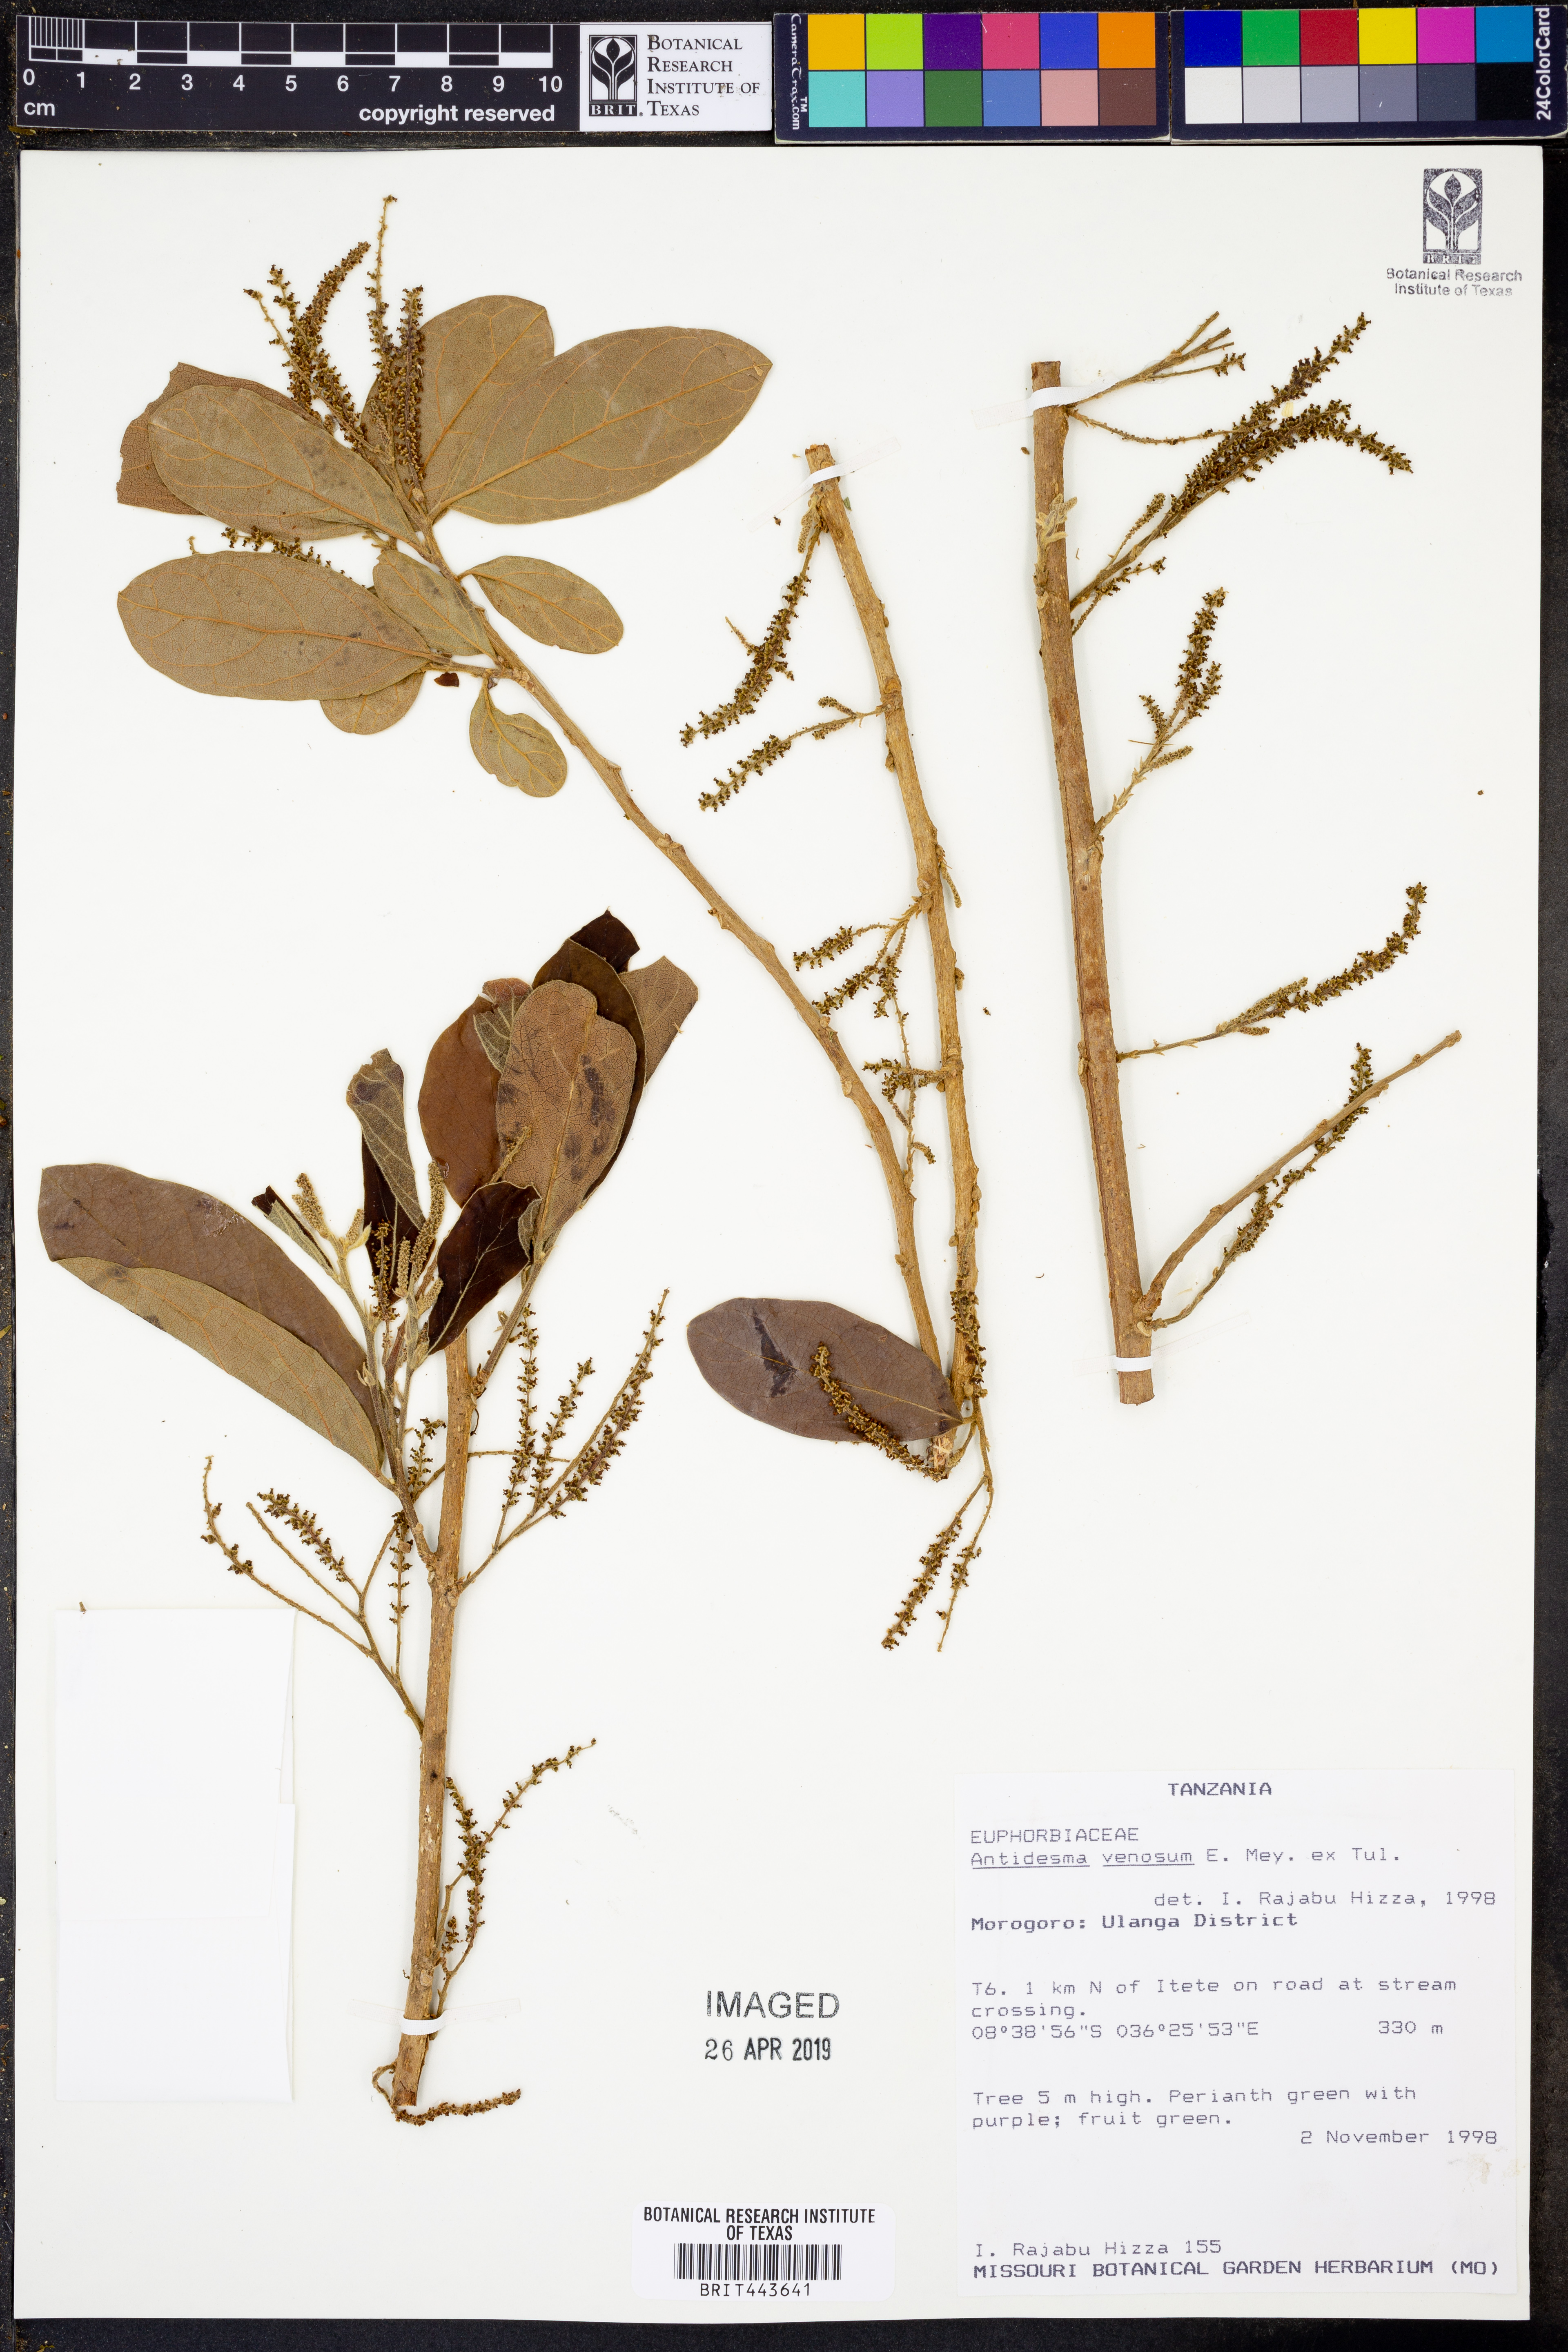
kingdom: Plantae
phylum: Tracheophyta
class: Magnoliopsida
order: Malpighiales
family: Phyllanthaceae
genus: Antidesma
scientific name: Antidesma venosum
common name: Tassel-berry
